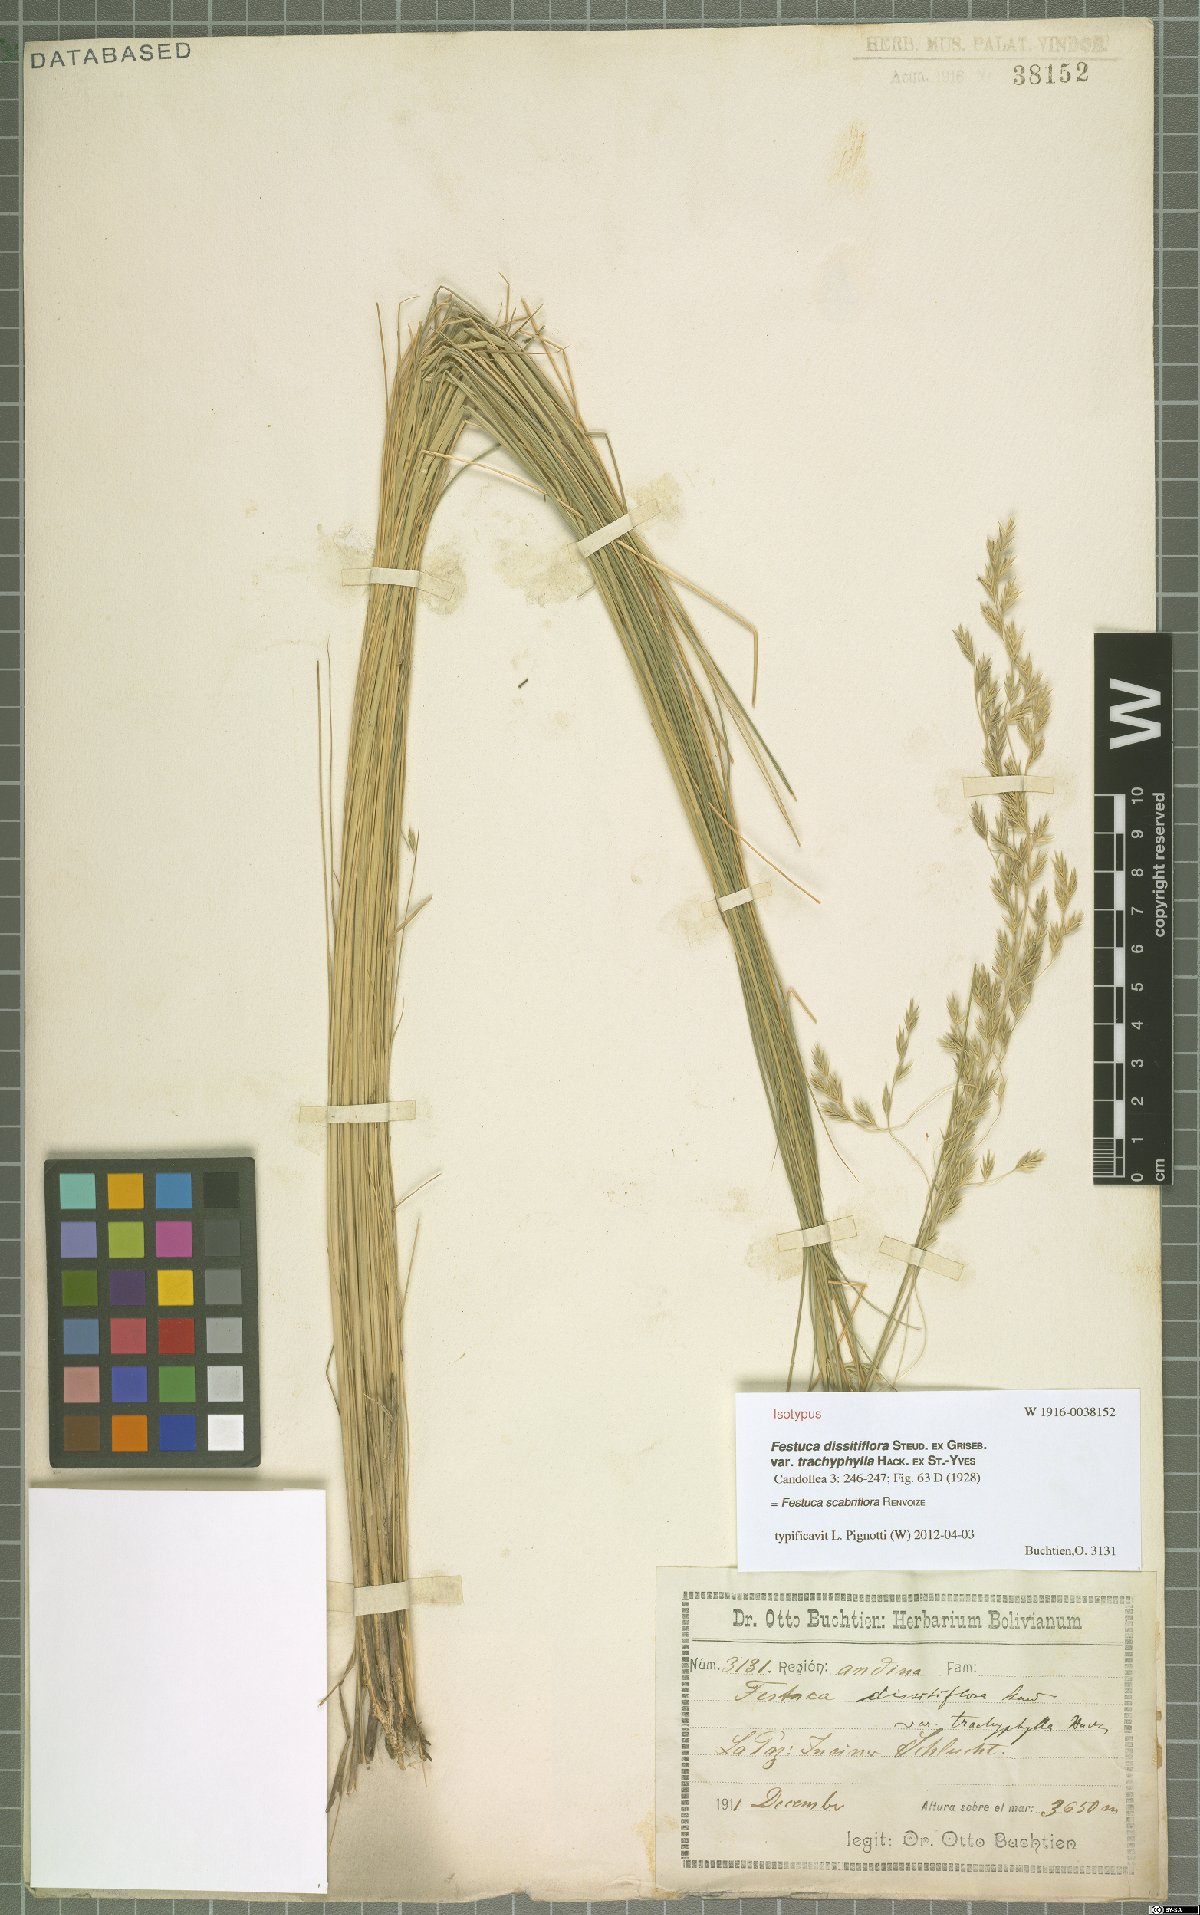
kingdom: Plantae
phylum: Tracheophyta
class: Liliopsida
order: Poales
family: Poaceae
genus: Festuca
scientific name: Festuca scabrifolia
